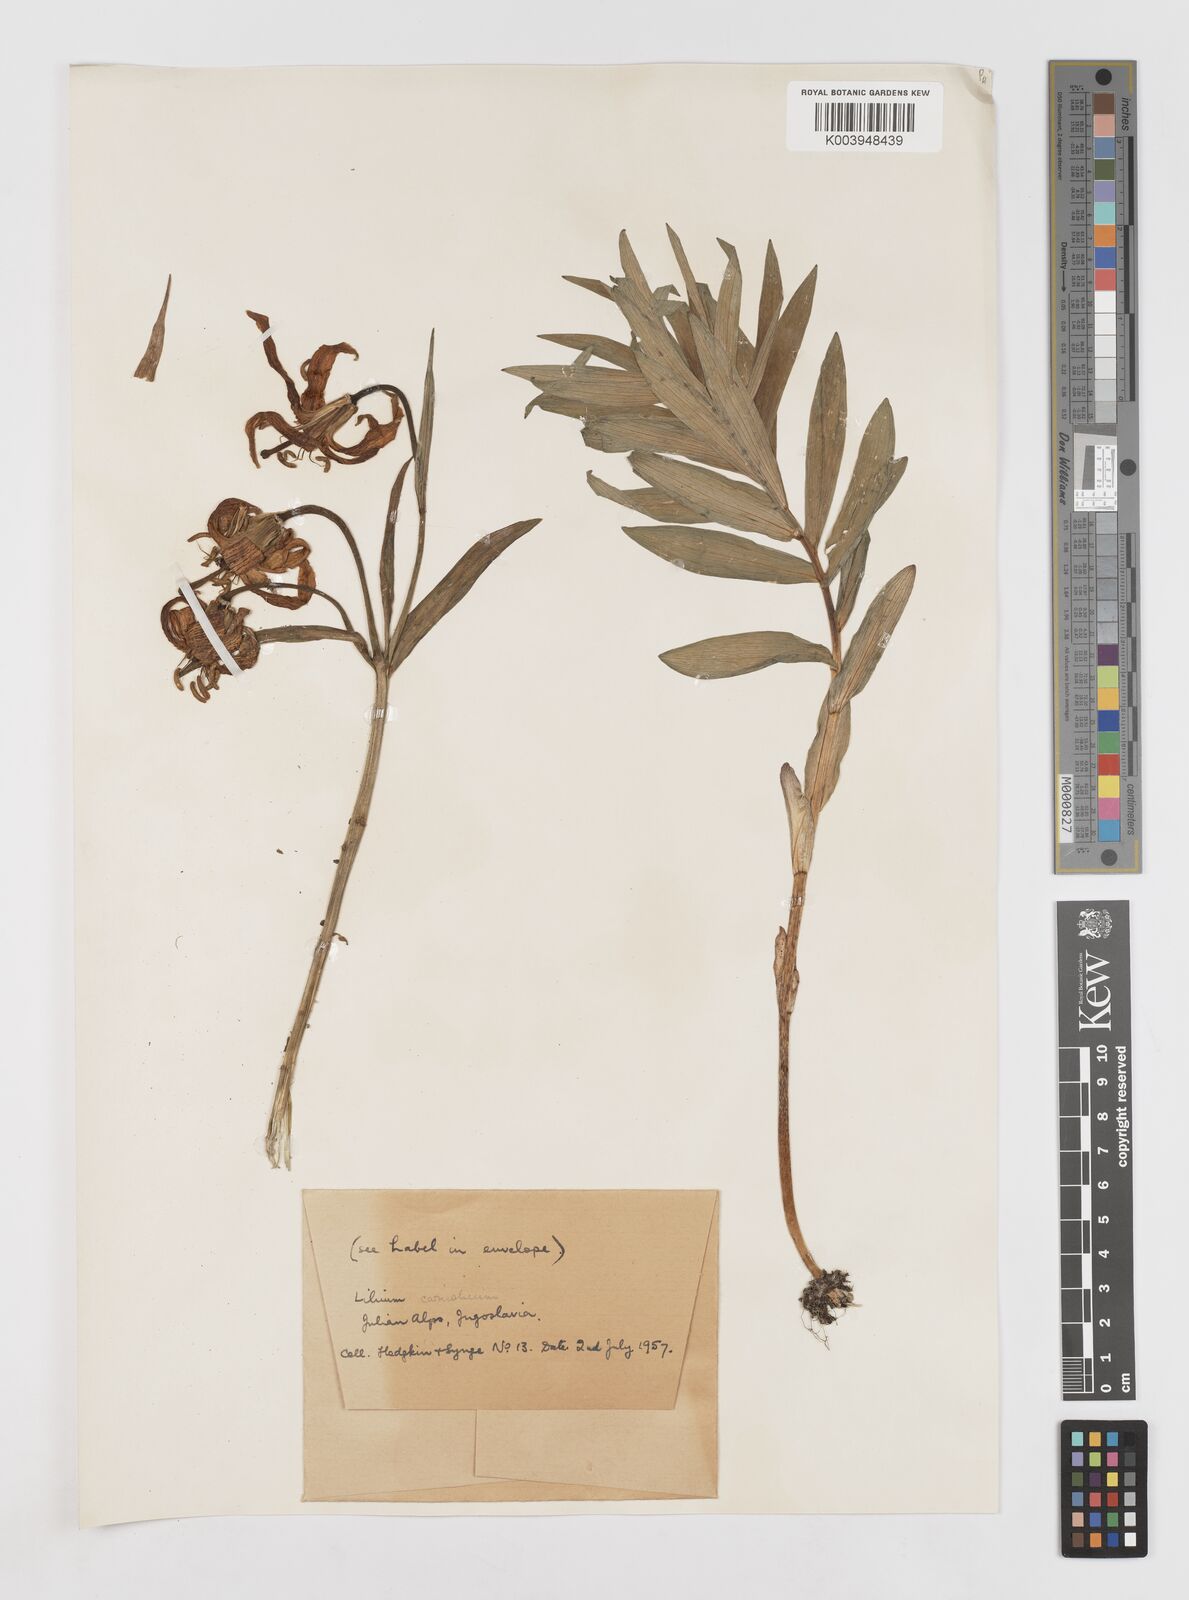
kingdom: Plantae
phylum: Tracheophyta
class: Liliopsida
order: Liliales
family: Liliaceae
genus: Lilium
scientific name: Lilium carniolicum
